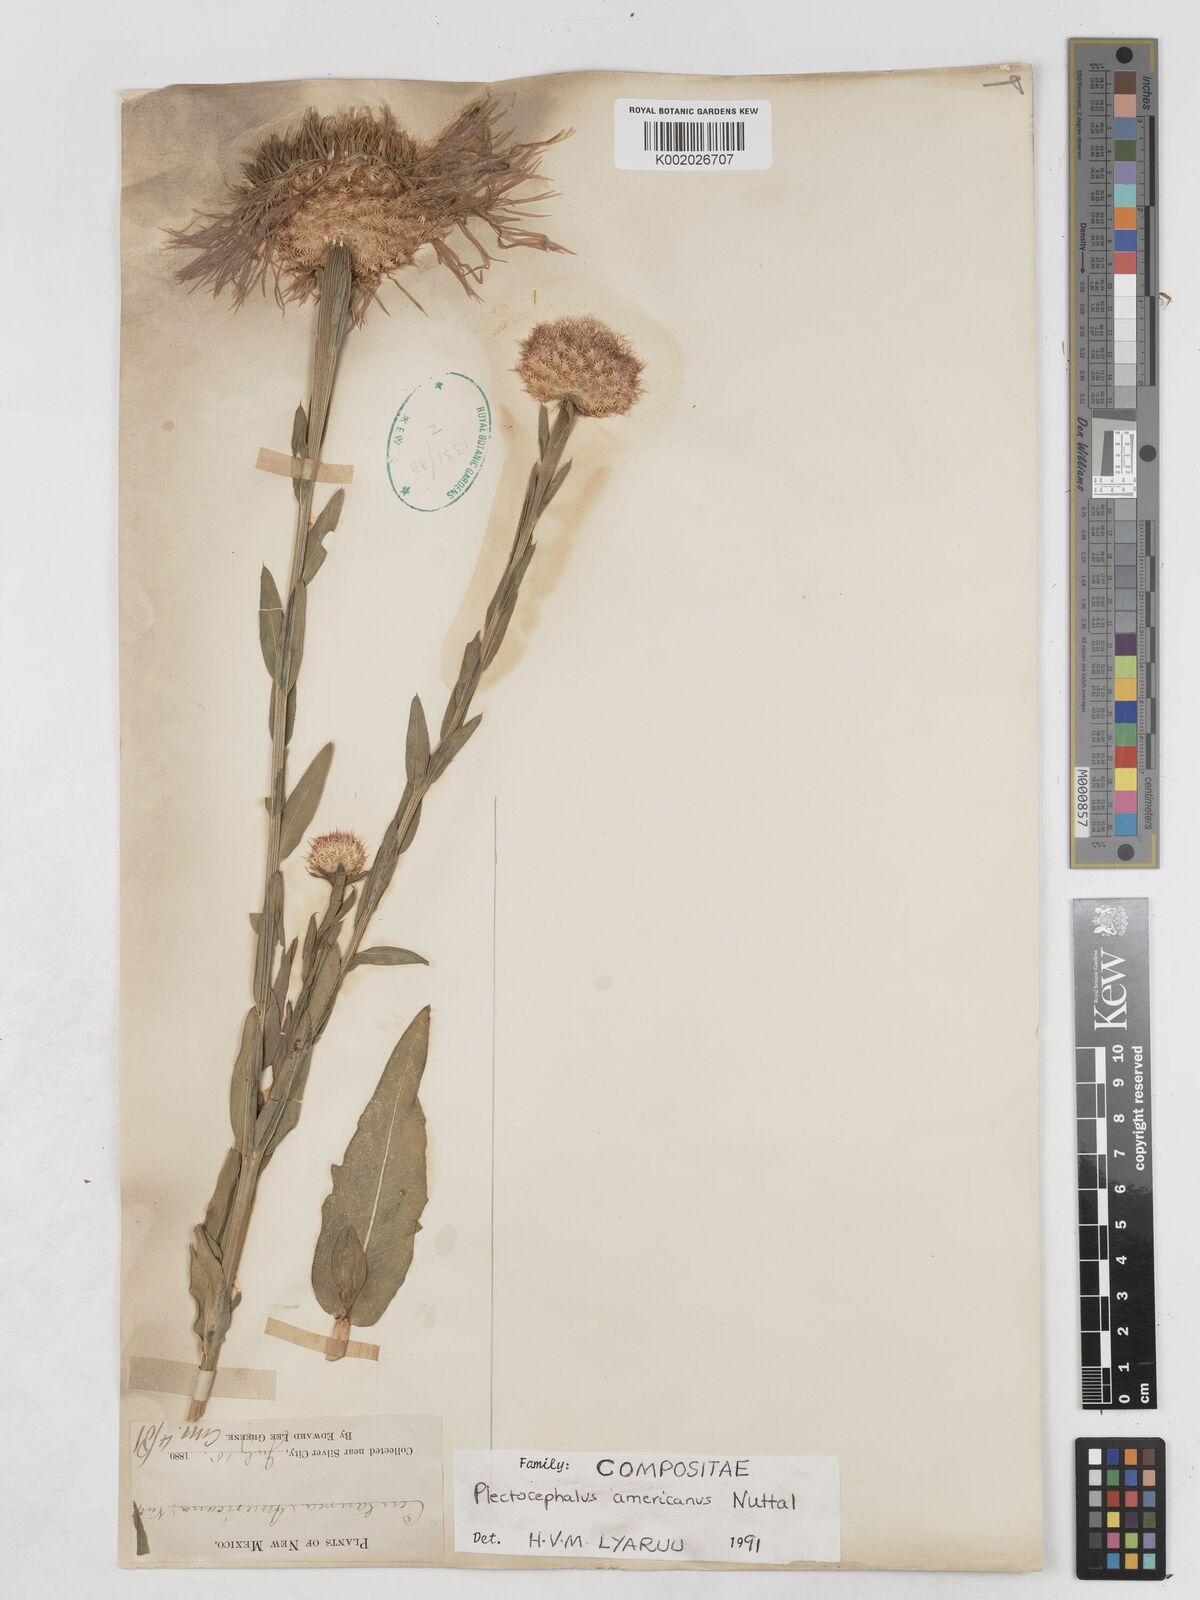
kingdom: Plantae
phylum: Tracheophyta
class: Magnoliopsida
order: Asterales
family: Asteraceae
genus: Plectocephalus
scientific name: Plectocephalus americanus
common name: American basket-flower
